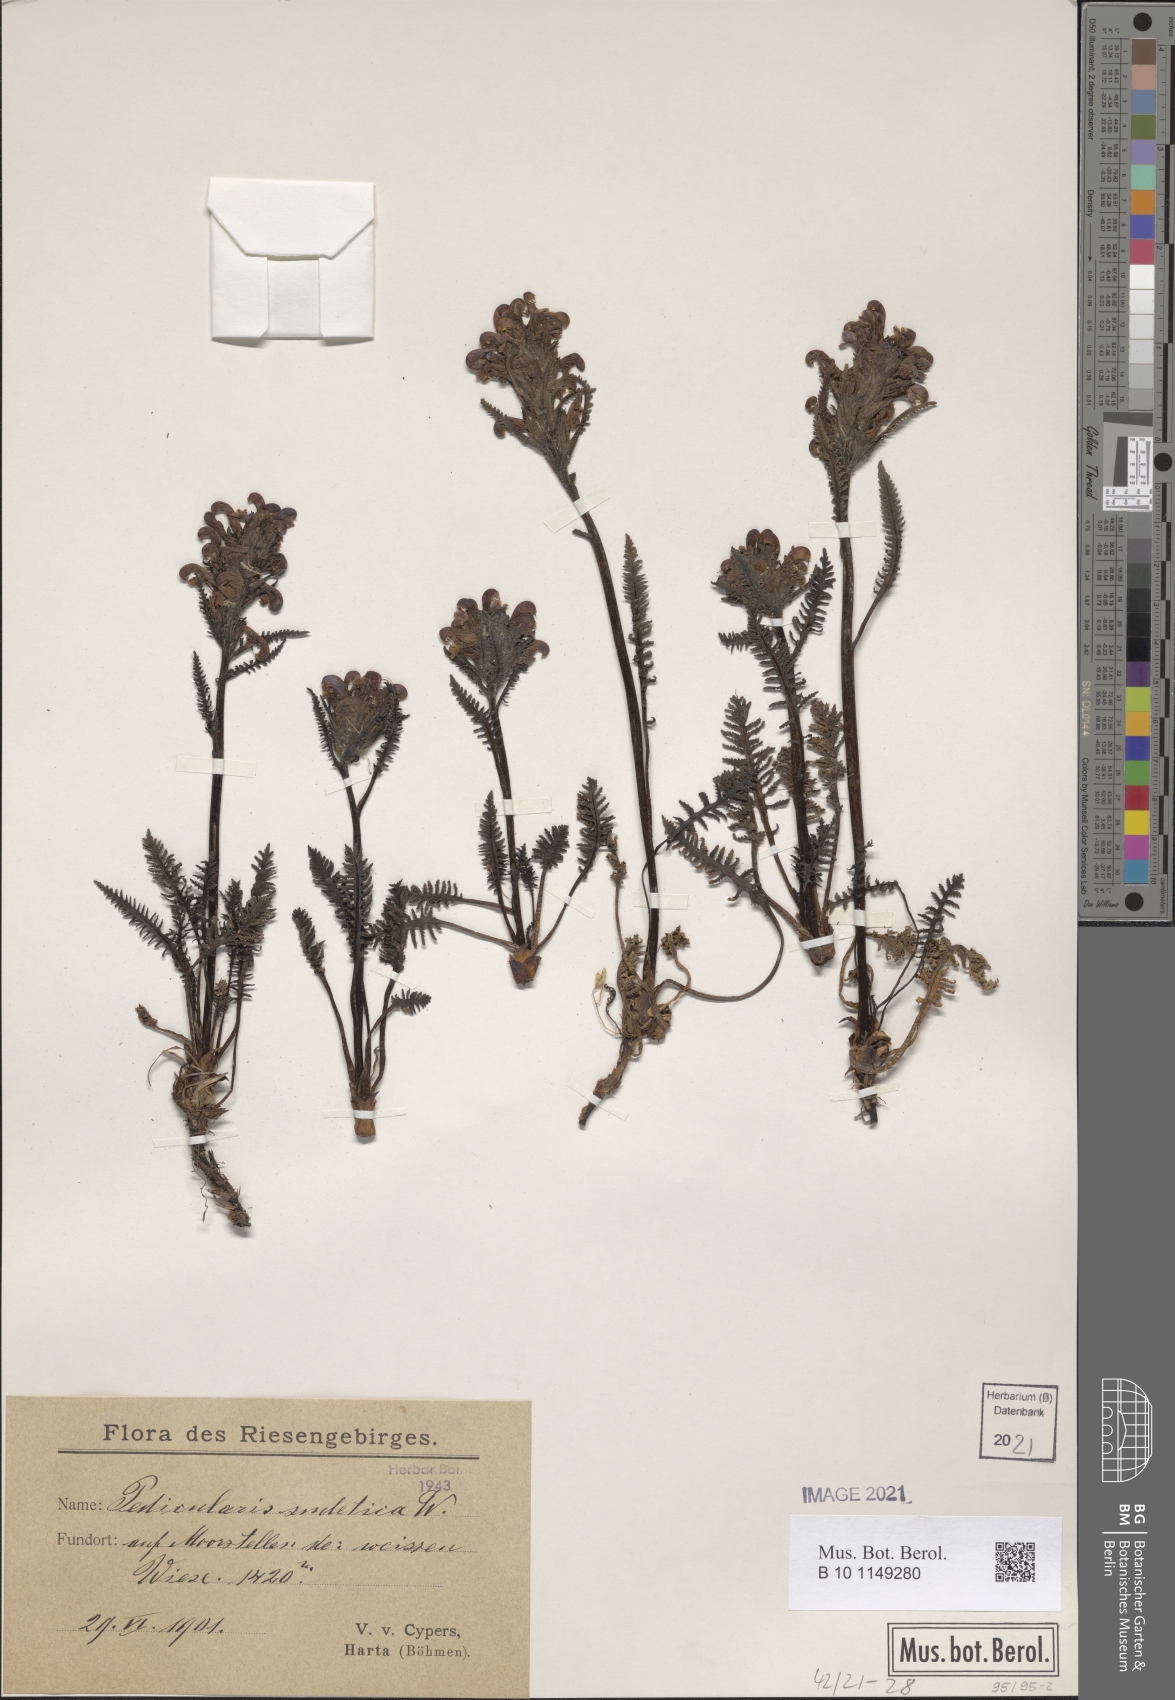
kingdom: Plantae
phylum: Tracheophyta
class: Magnoliopsida
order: Lamiales
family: Orobanchaceae
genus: Pedicularis
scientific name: Pedicularis sudetica
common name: Sudeten lousewort
